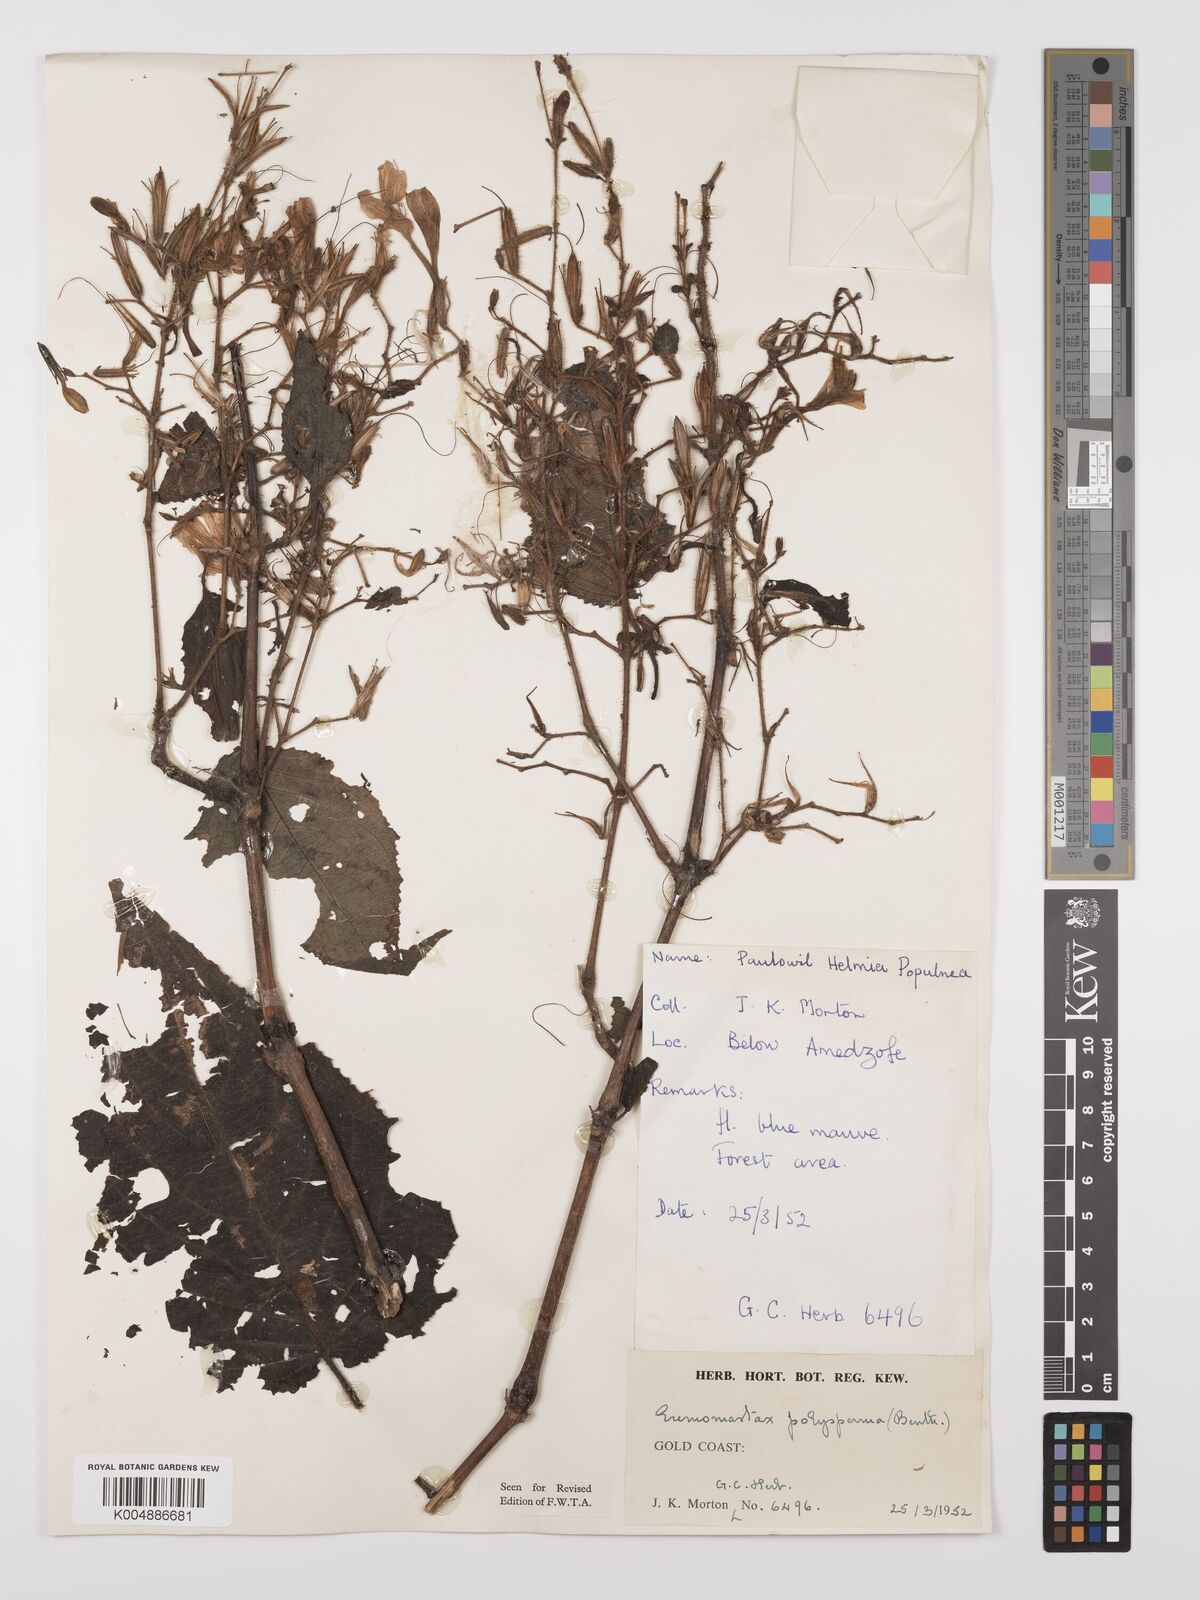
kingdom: Plantae
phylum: Tracheophyta
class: Magnoliopsida
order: Lamiales
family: Acanthaceae
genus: Eremomastax
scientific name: Eremomastax speciosa
